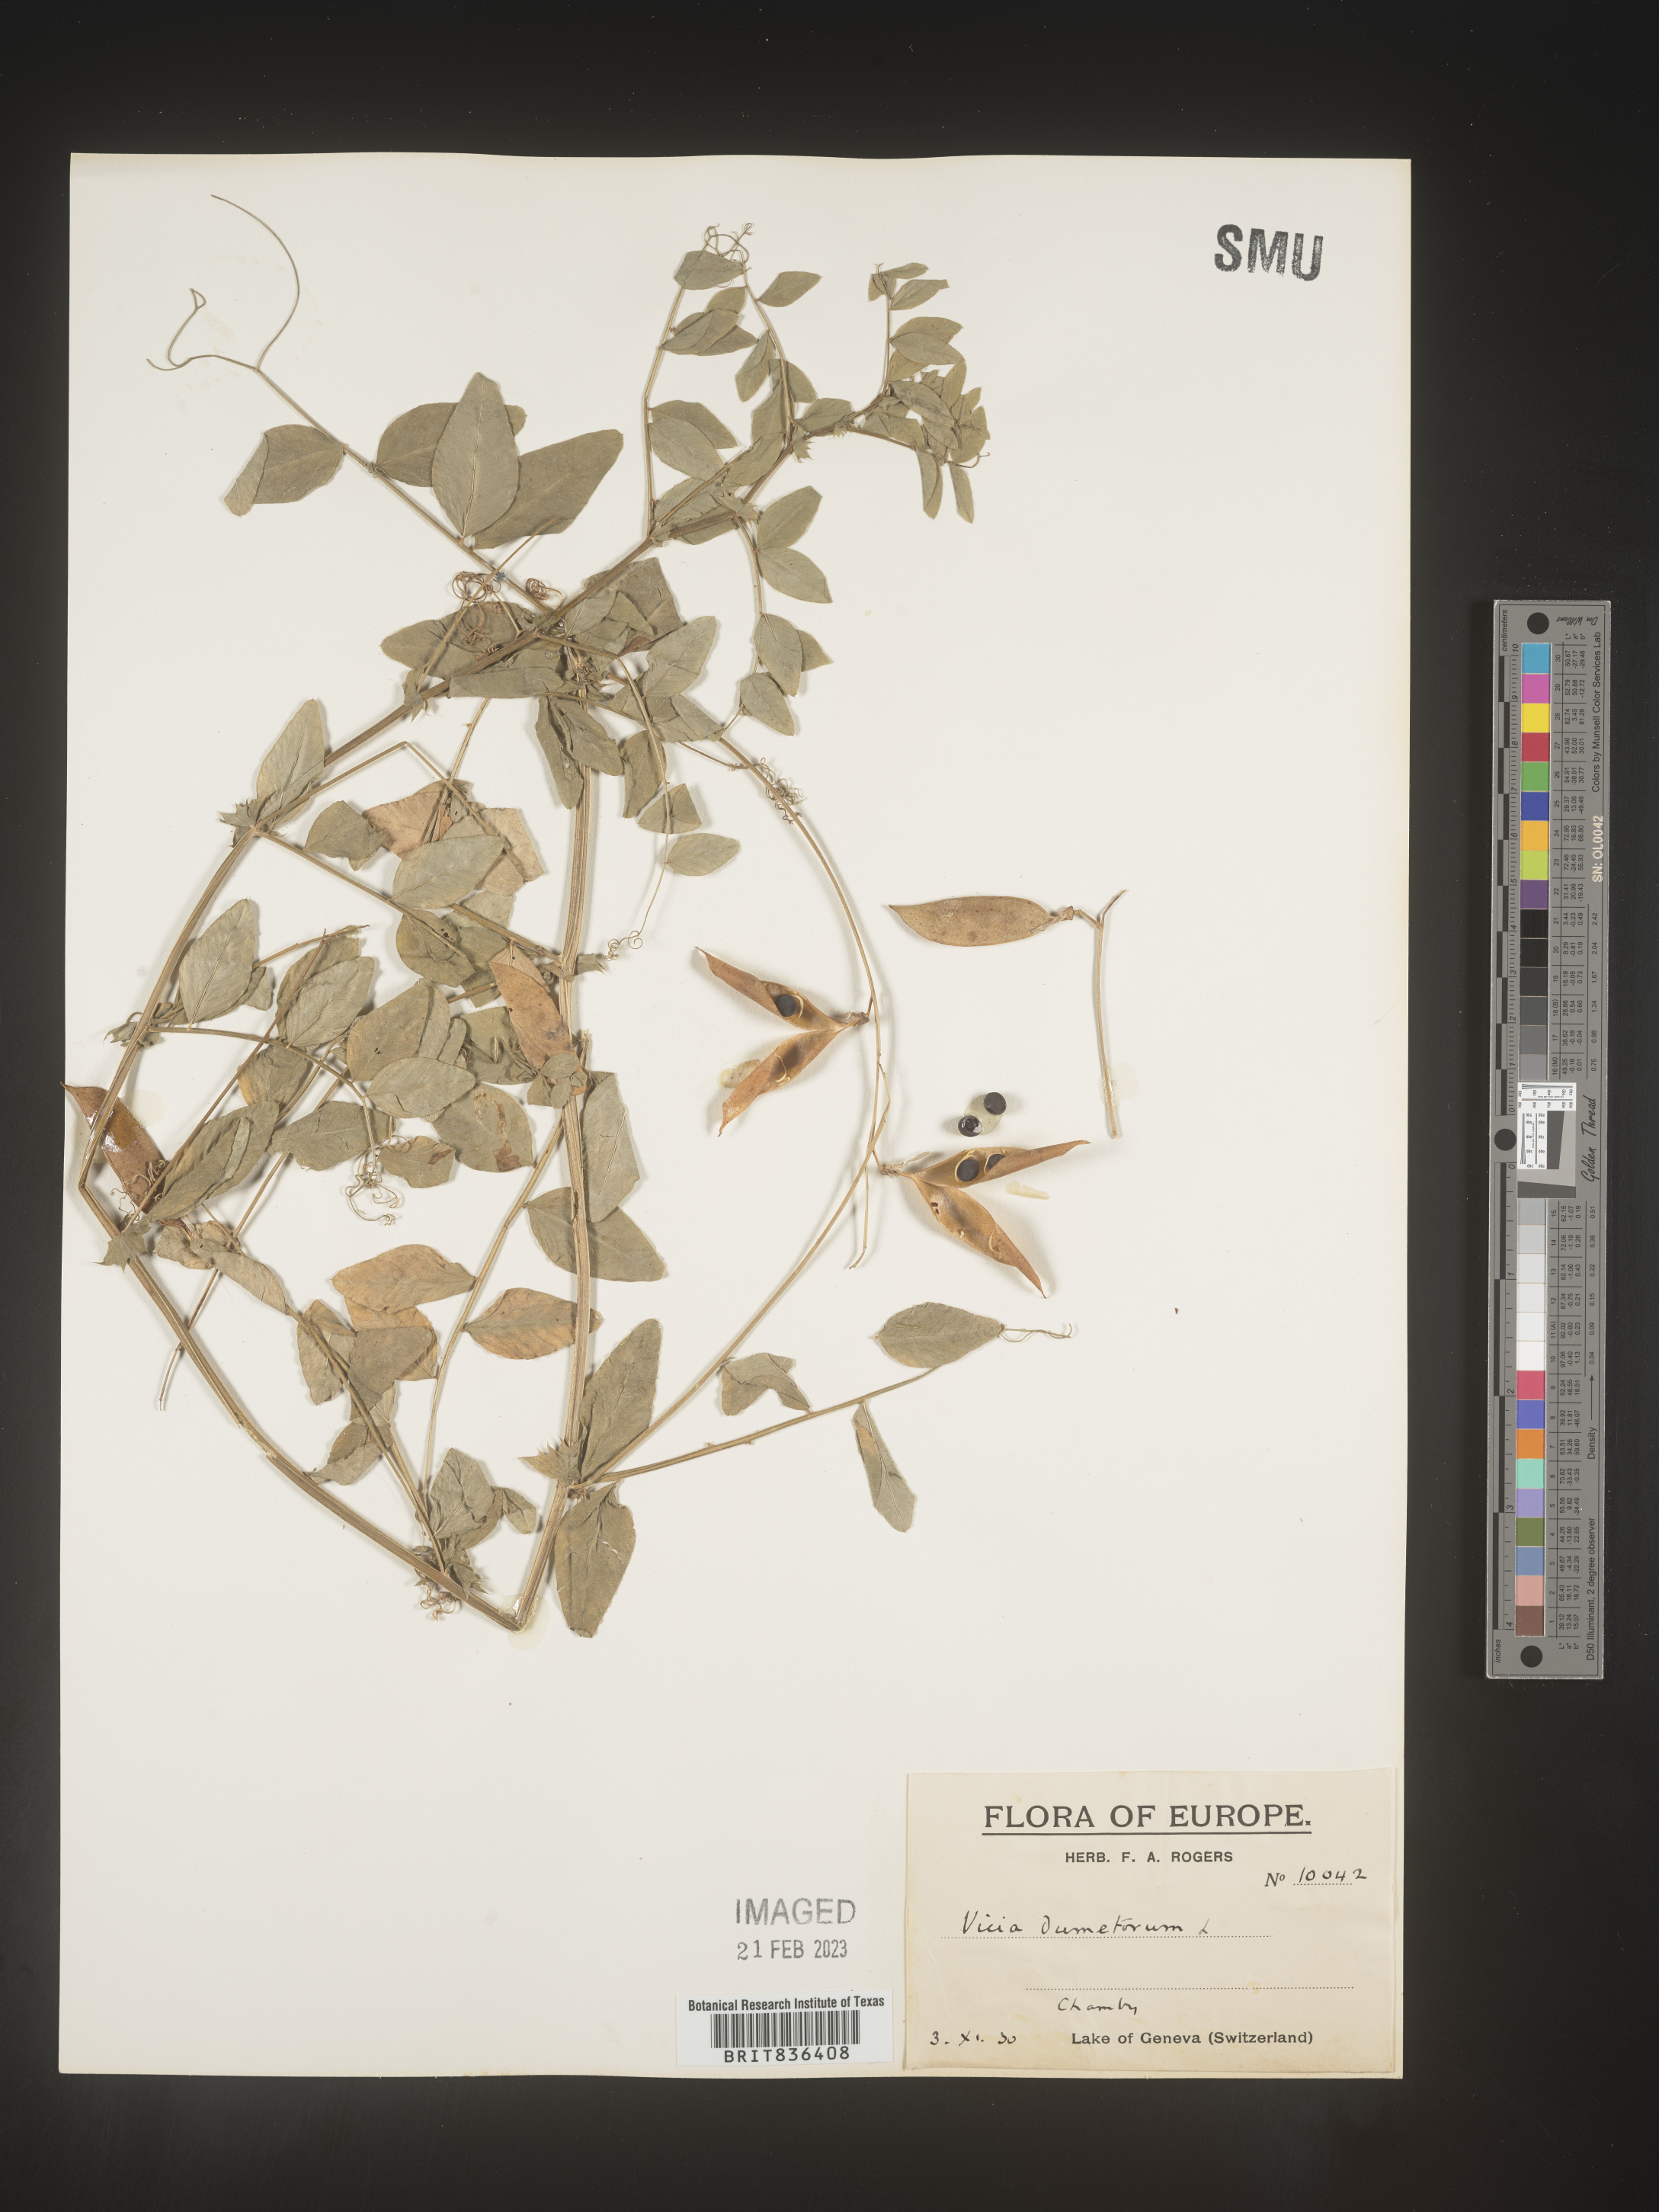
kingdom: Plantae
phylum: Tracheophyta
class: Magnoliopsida
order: Fabales
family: Fabaceae
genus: Vicia
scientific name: Vicia
